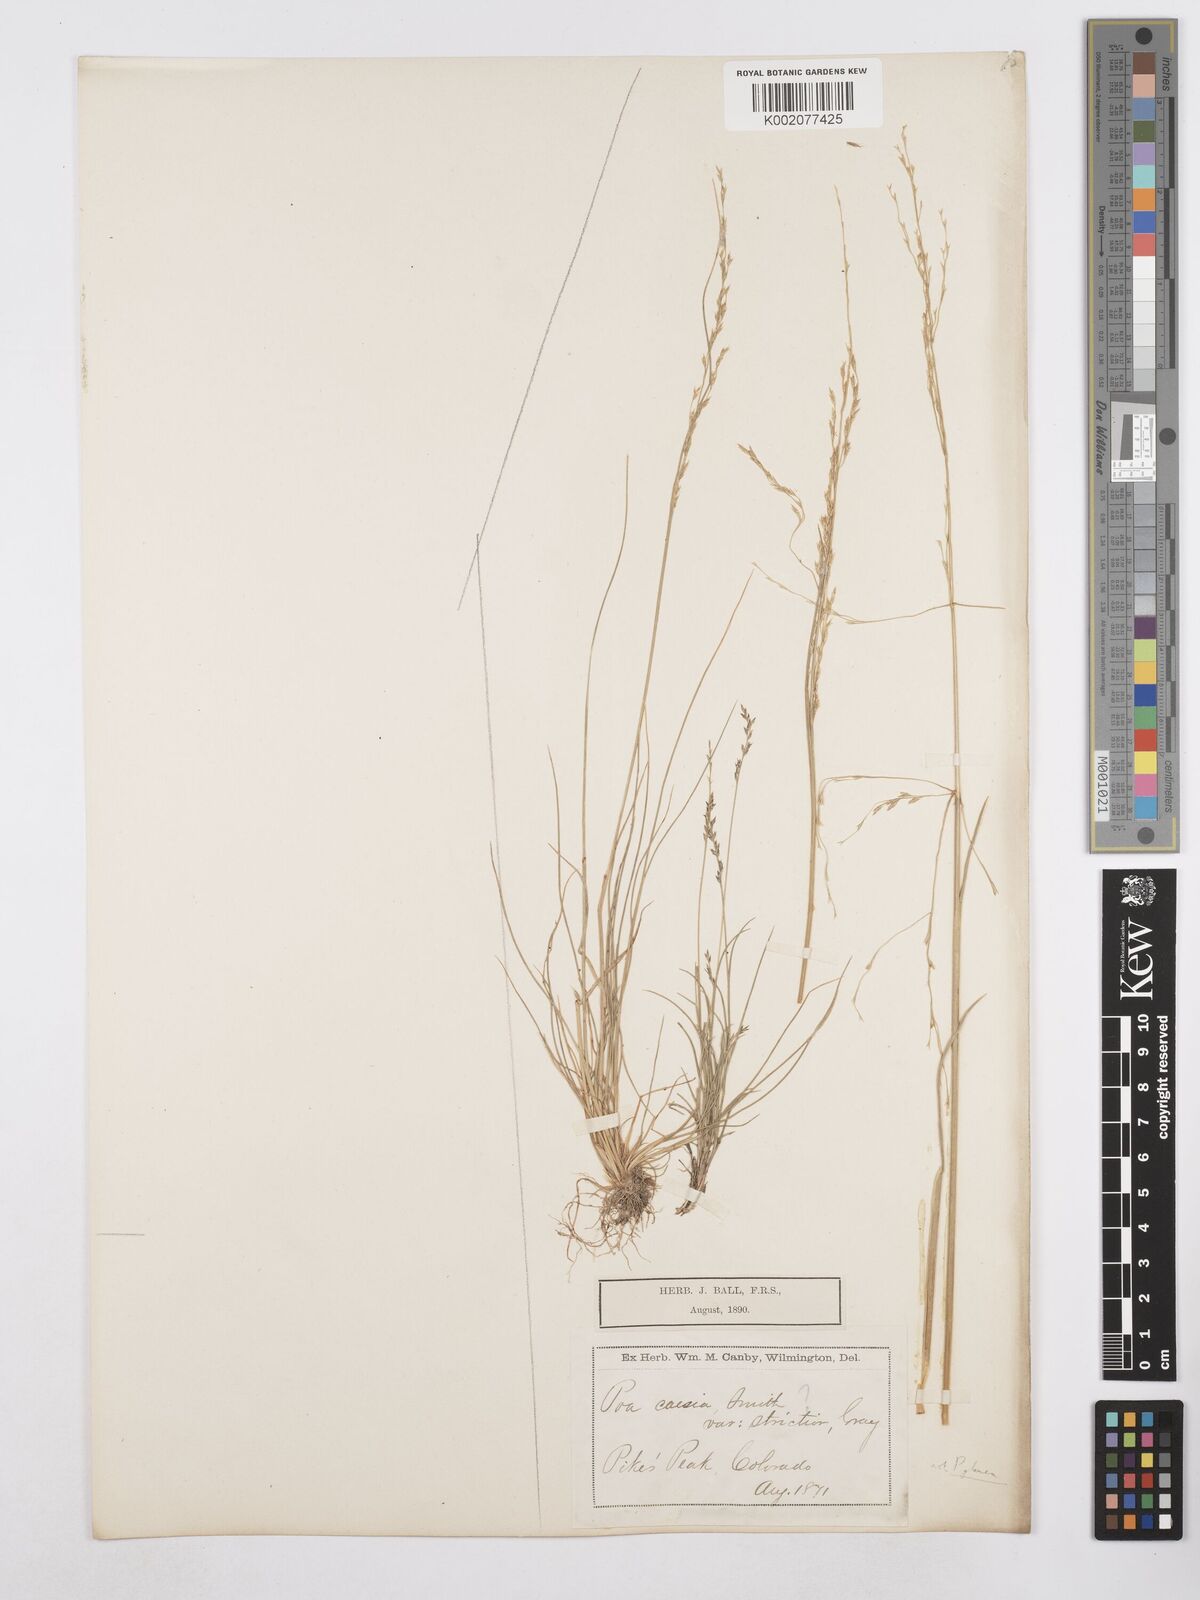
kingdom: Plantae
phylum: Tracheophyta
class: Liliopsida
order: Poales
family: Poaceae
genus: Poa
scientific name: Poa glauca
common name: Glaucous bluegrass
